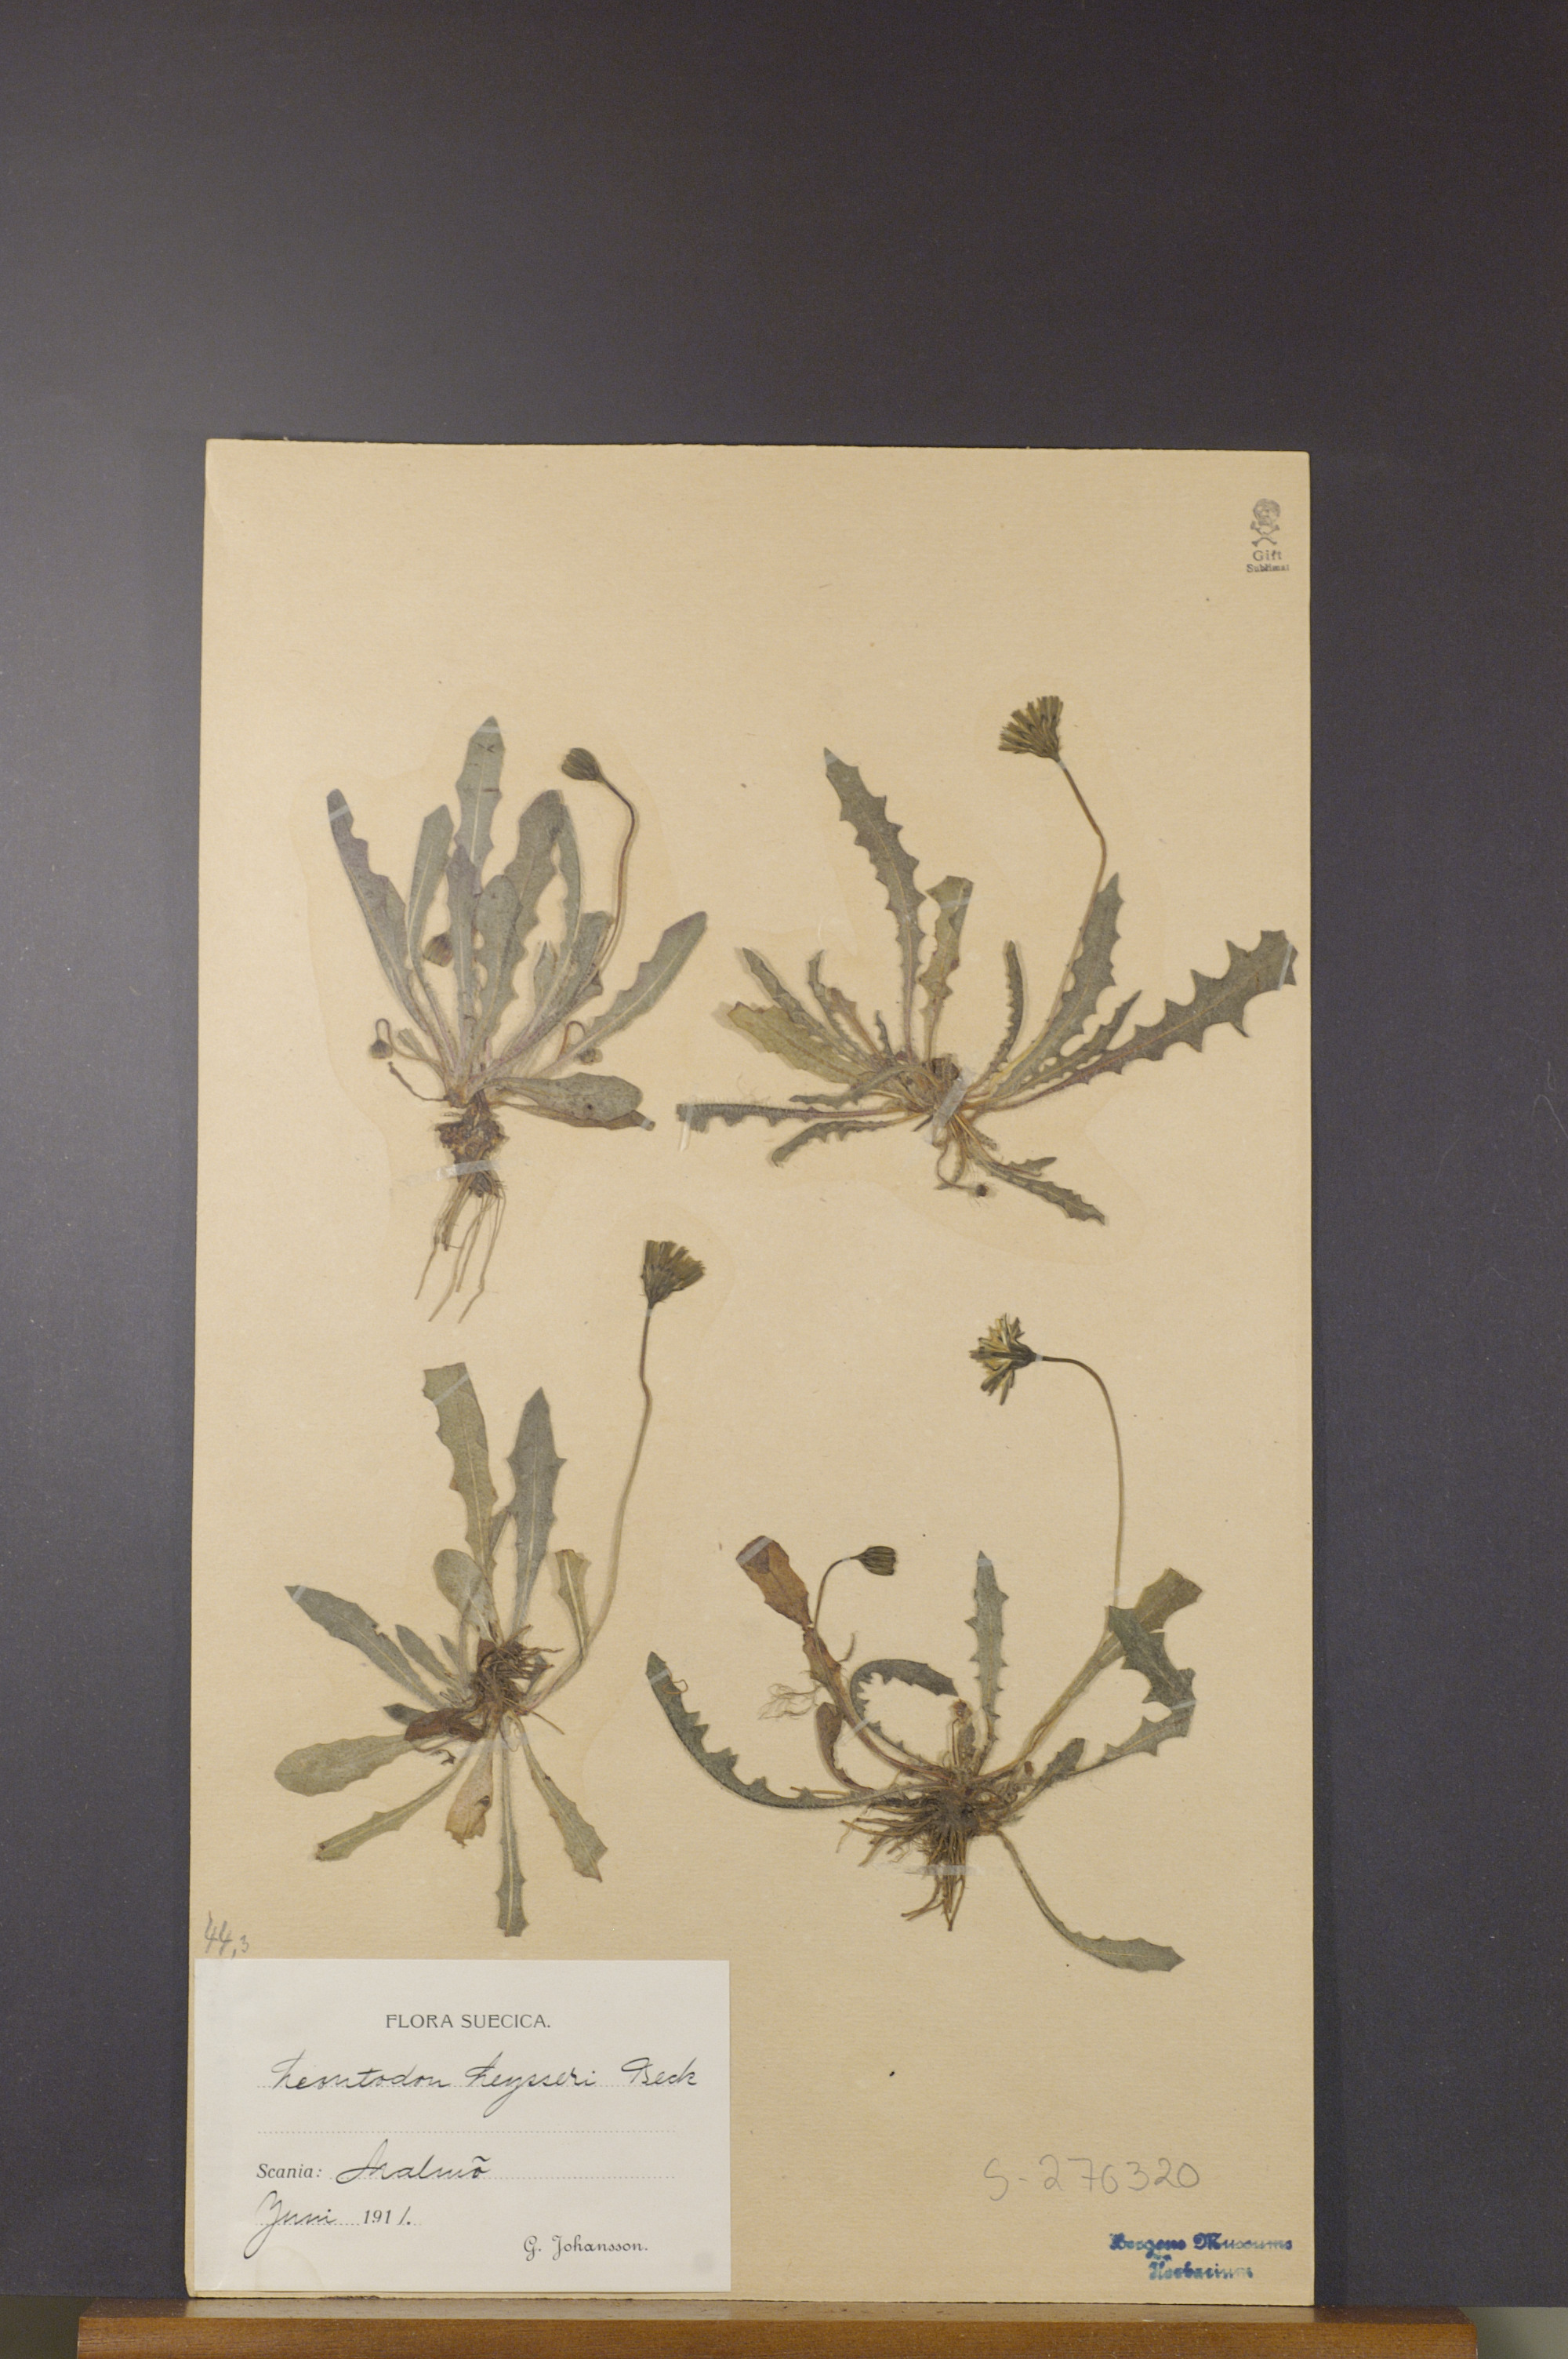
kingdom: Plantae
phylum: Tracheophyta
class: Magnoliopsida
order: Asterales
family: Asteraceae
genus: Thrincia
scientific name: Thrincia saxatilis
